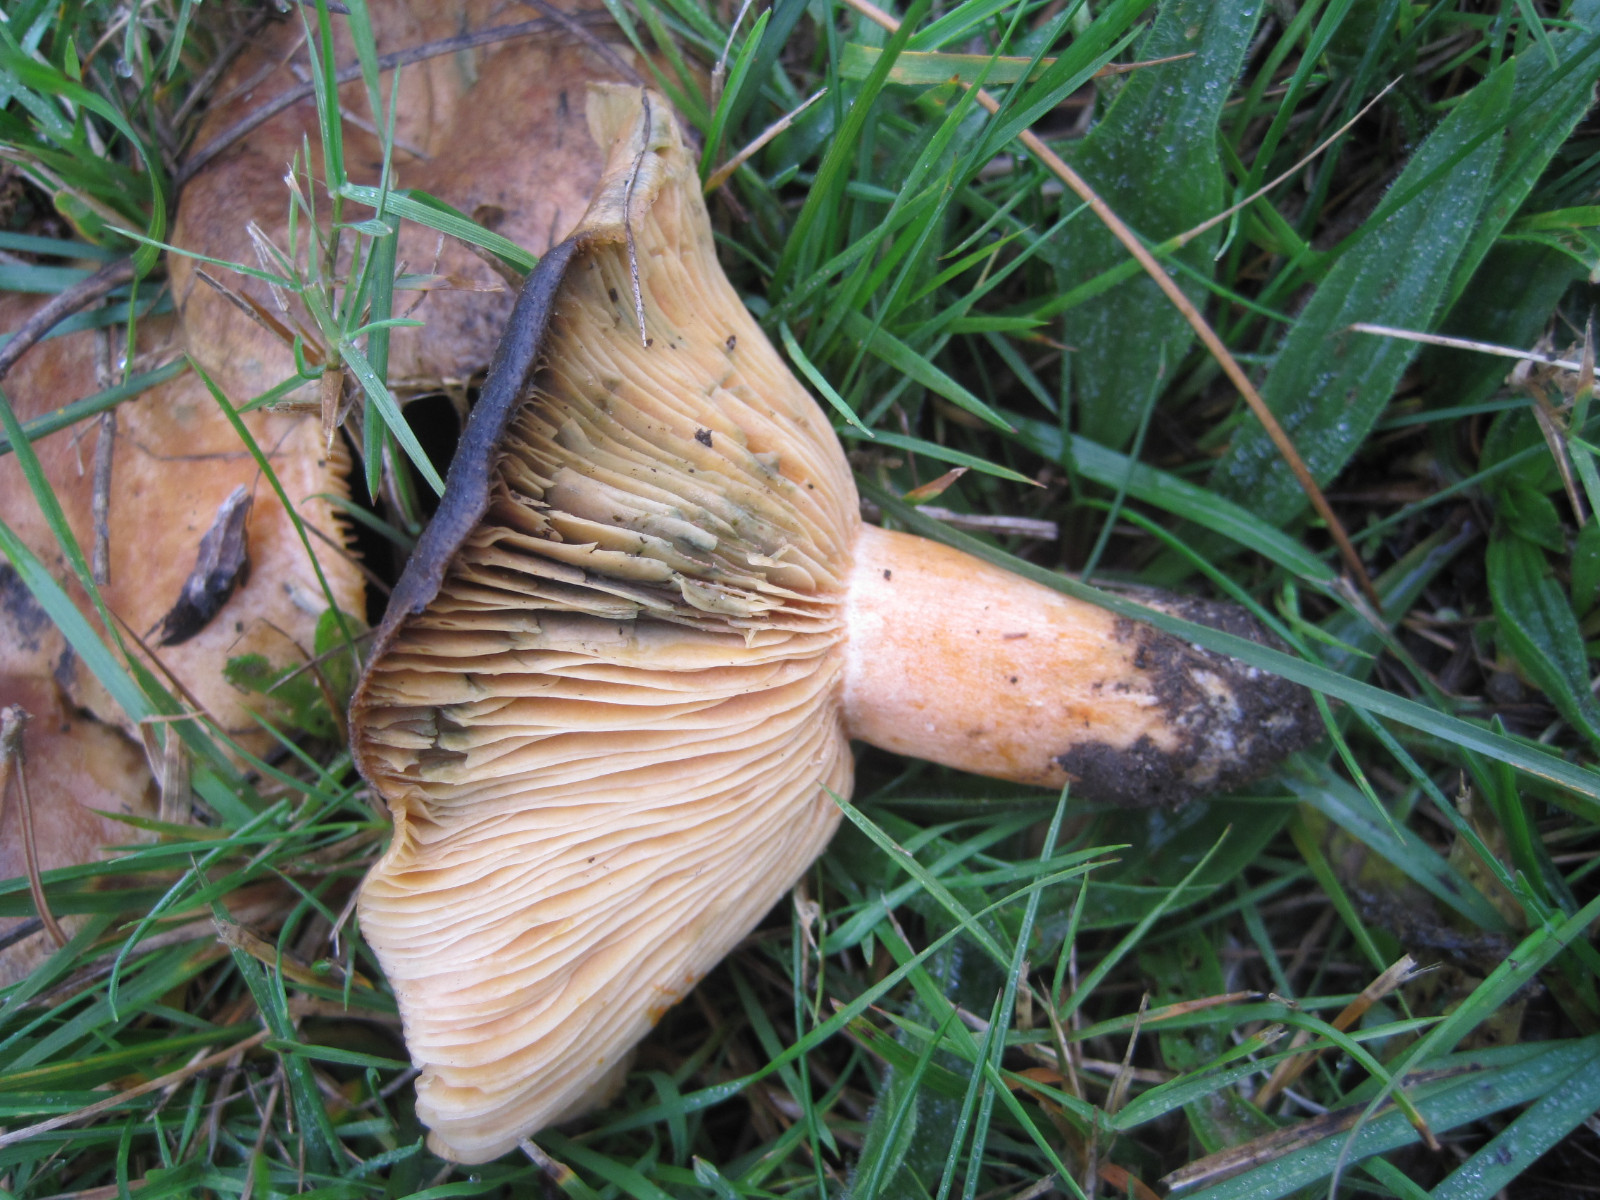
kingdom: Fungi
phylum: Basidiomycota
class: Agaricomycetes
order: Russulales
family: Russulaceae
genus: Lactarius
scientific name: Lactarius deterrimus
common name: gran-mælkehat
